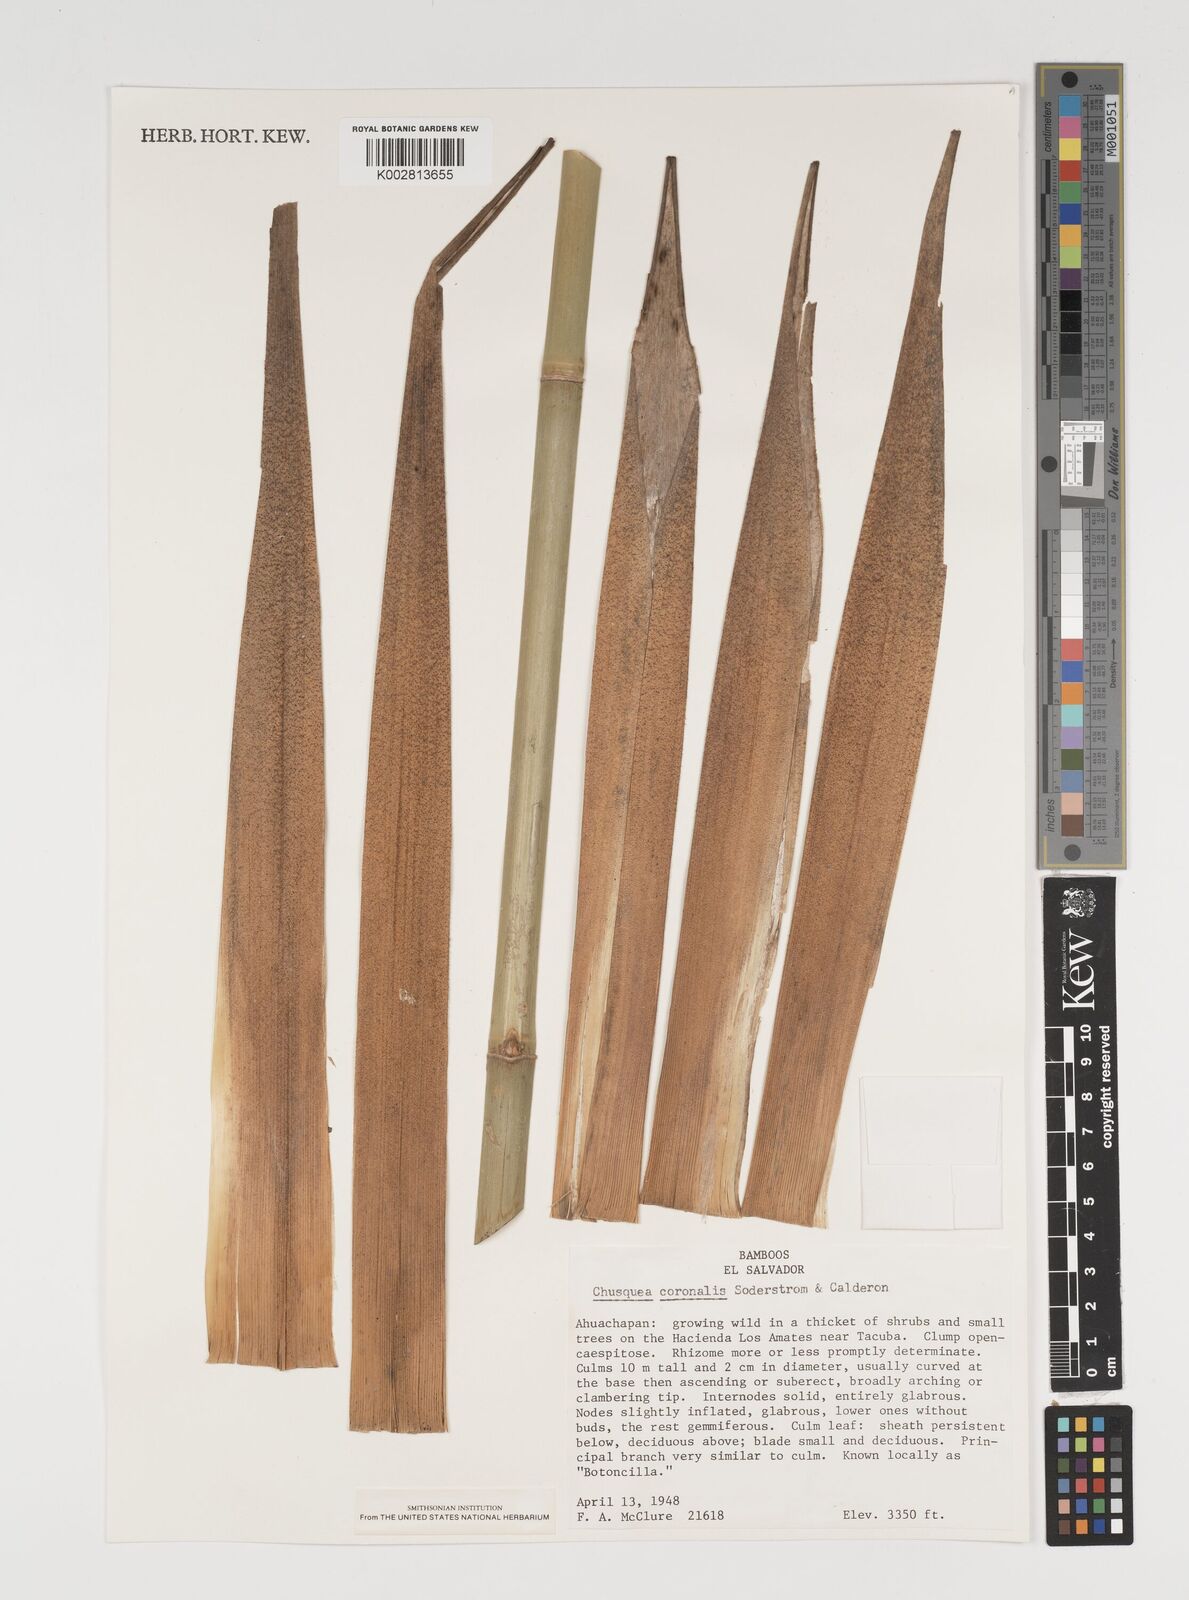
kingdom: Plantae
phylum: Tracheophyta
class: Liliopsida
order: Poales
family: Poaceae
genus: Chusquea
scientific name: Chusquea coronalis
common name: Machris bamboo
